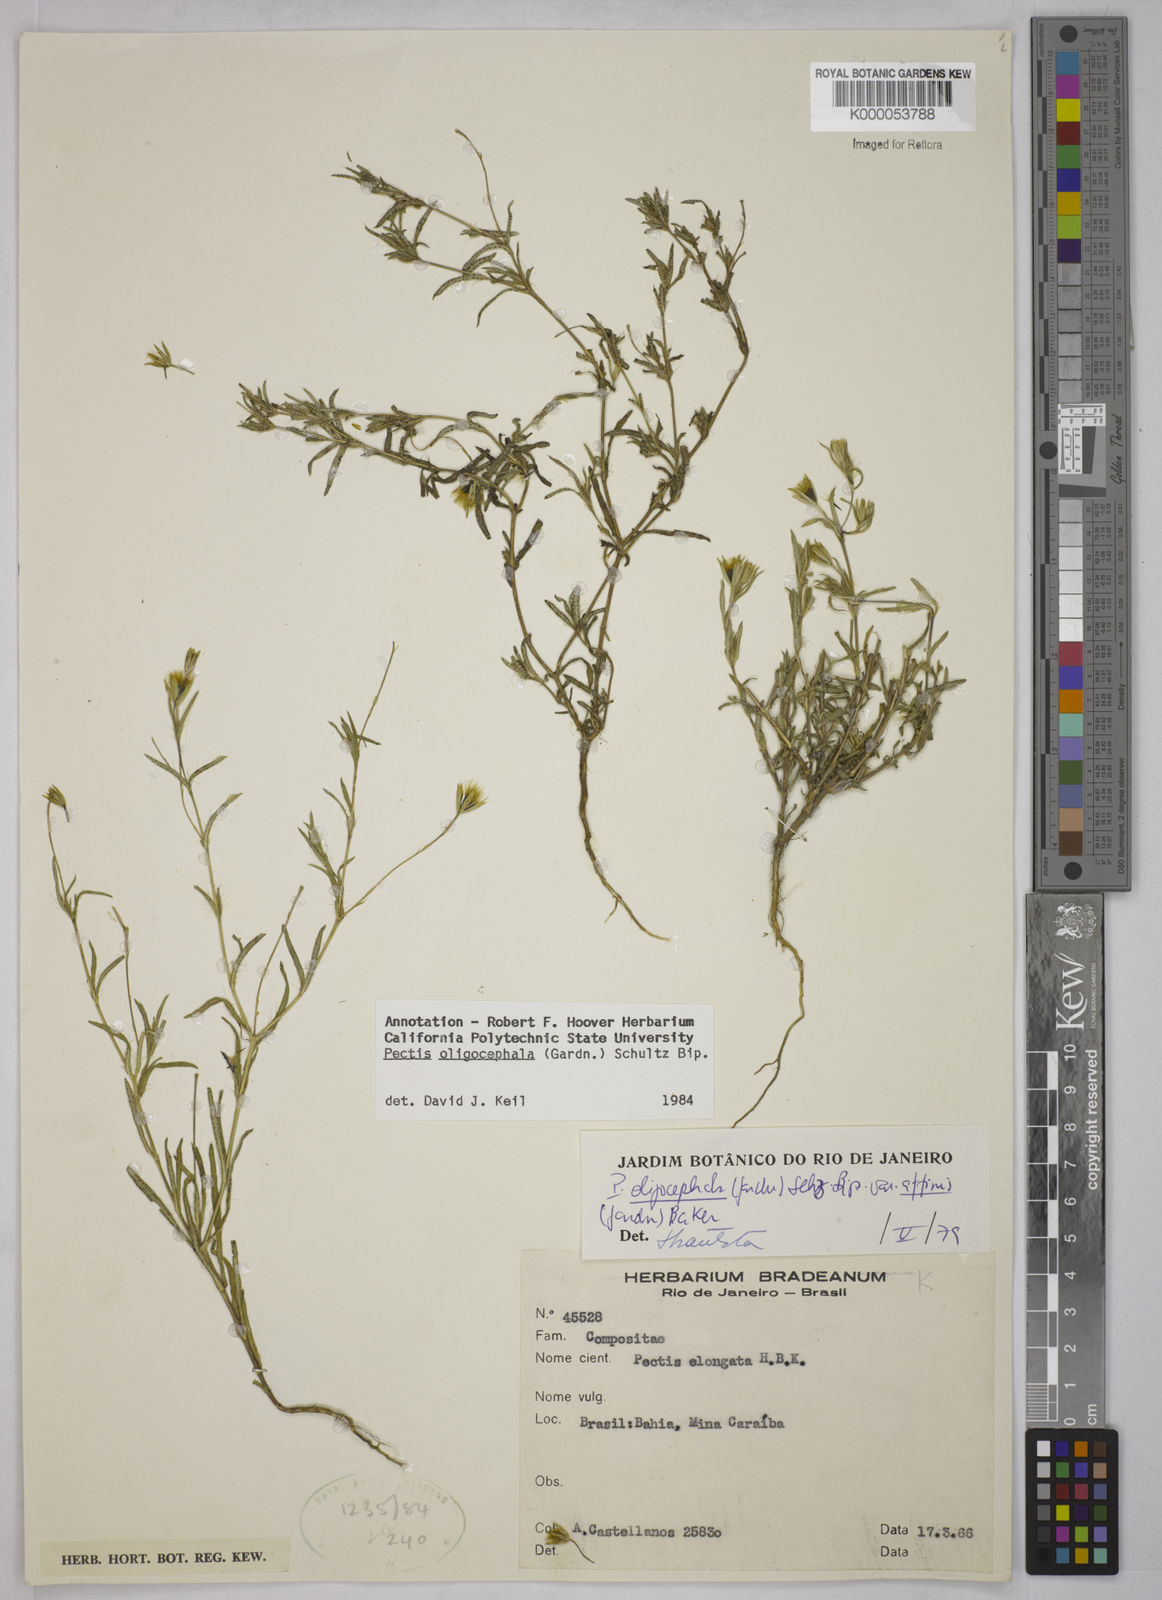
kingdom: Plantae
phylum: Tracheophyta
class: Magnoliopsida
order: Asterales
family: Asteraceae
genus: Pectis
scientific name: Pectis oligocephala
